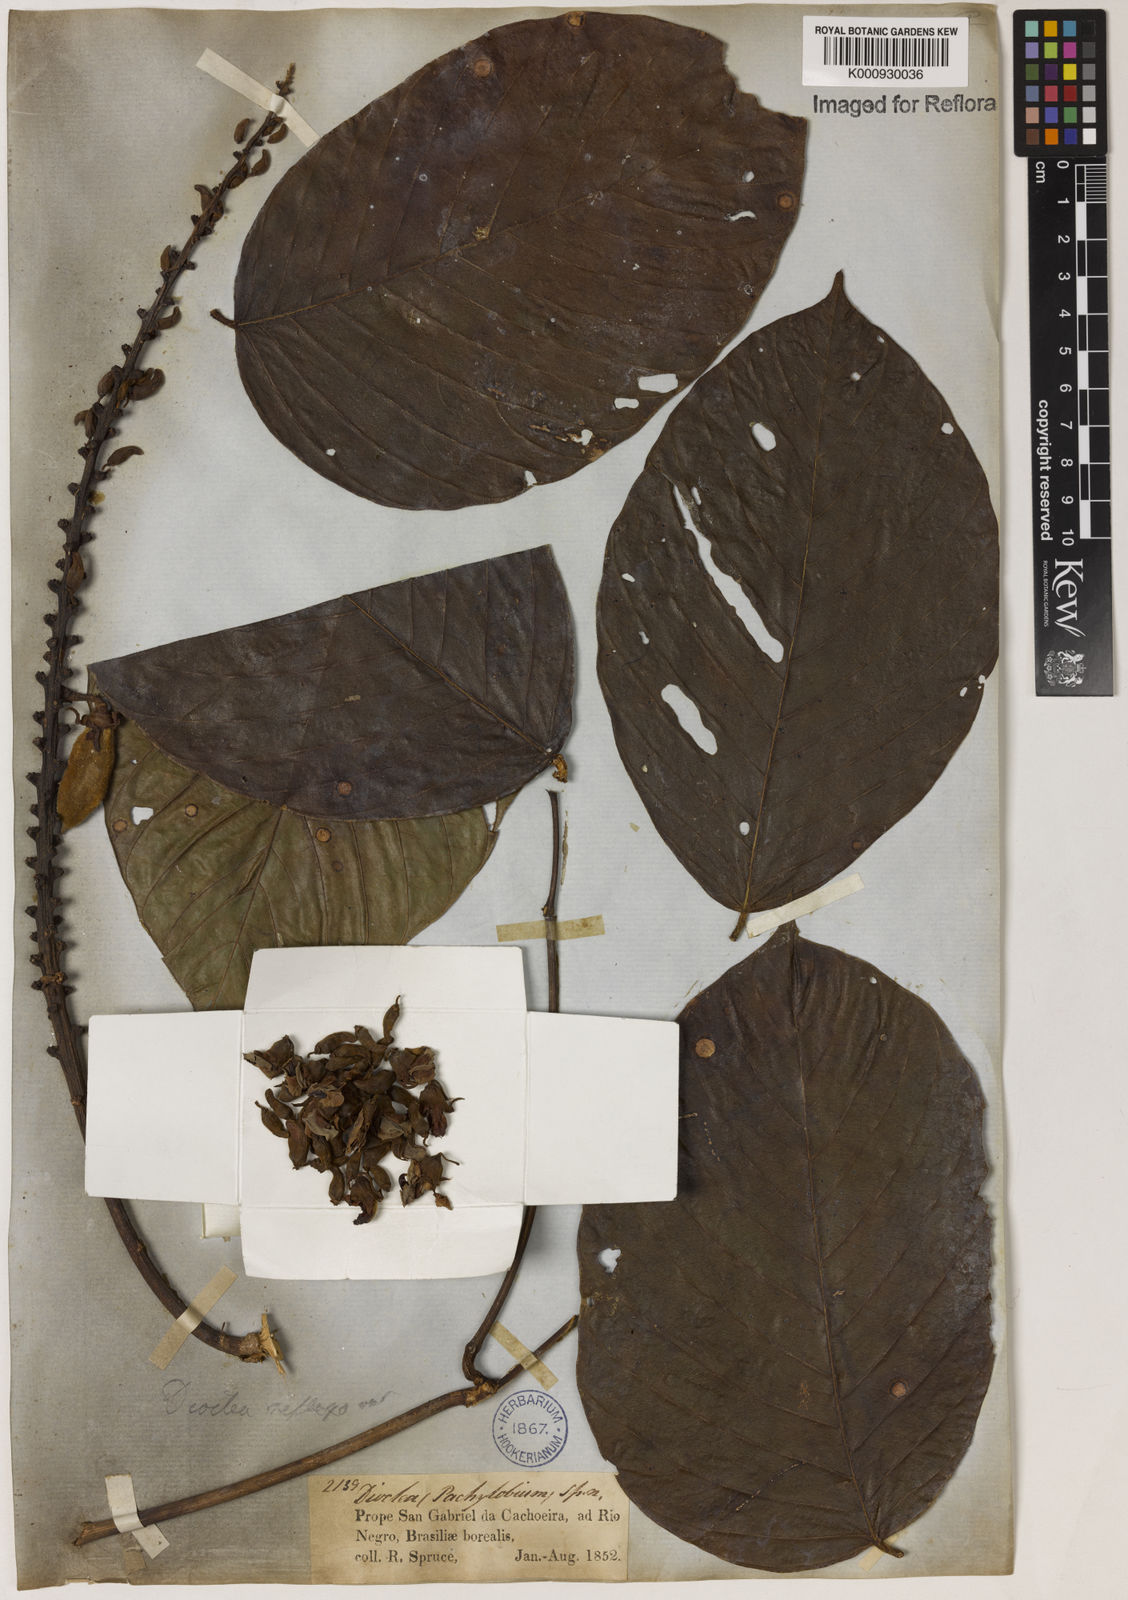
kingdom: Plantae
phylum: Tracheophyta
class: Magnoliopsida
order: Fabales
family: Fabaceae
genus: Macropsychanthus
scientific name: Macropsychanthus malacocarpus
